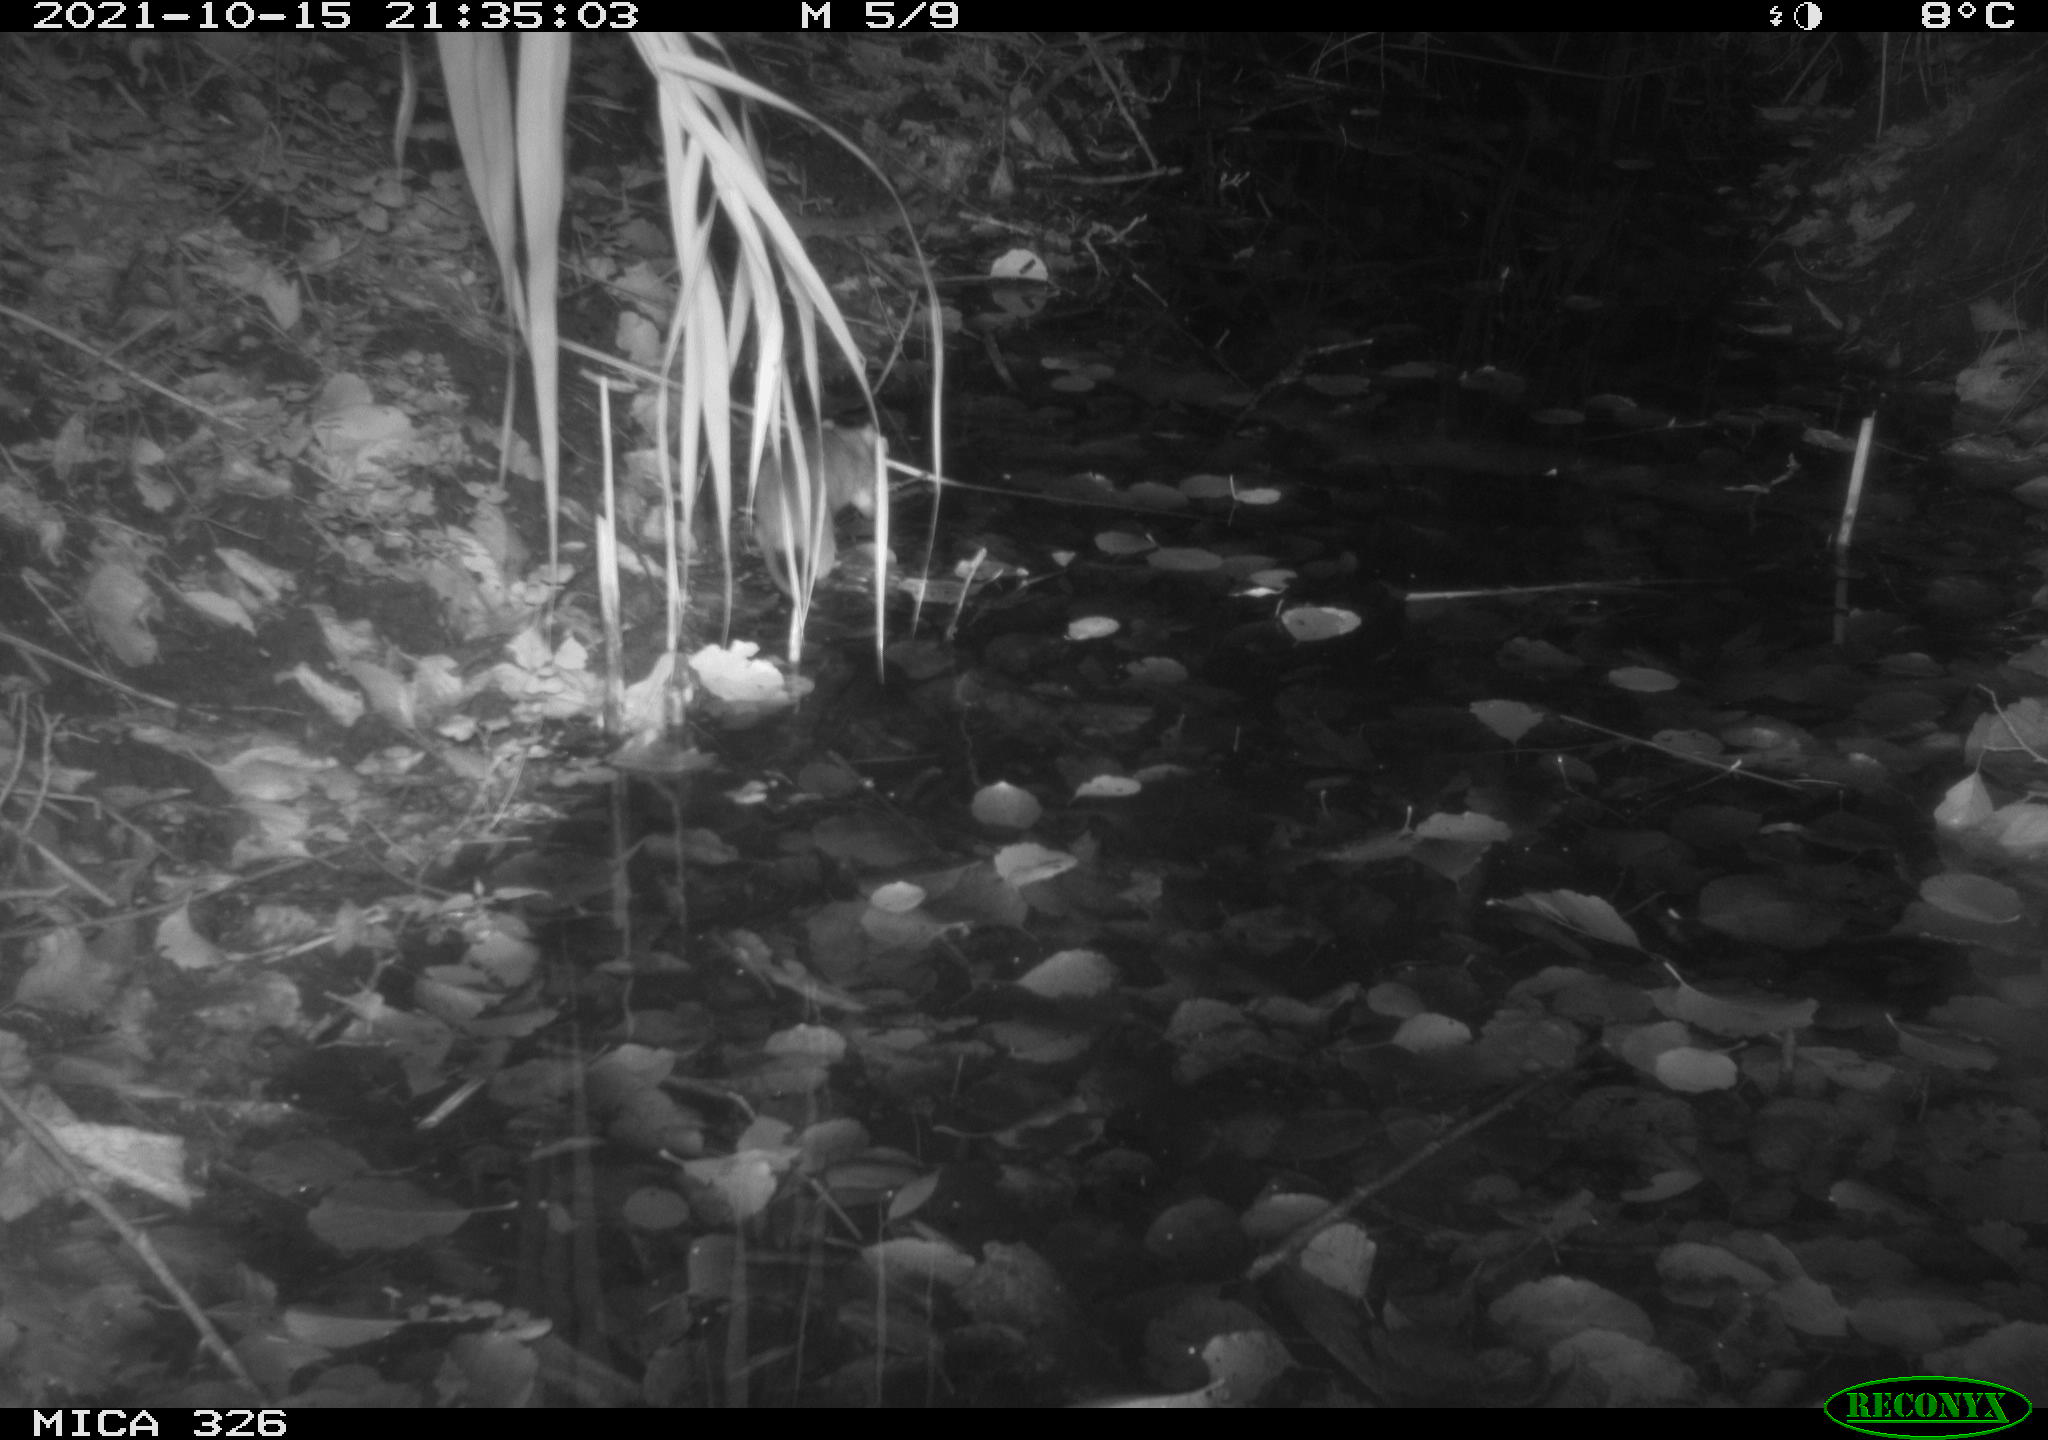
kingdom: Animalia
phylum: Chordata
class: Mammalia
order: Rodentia
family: Muridae
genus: Rattus
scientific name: Rattus norvegicus
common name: Brown rat
